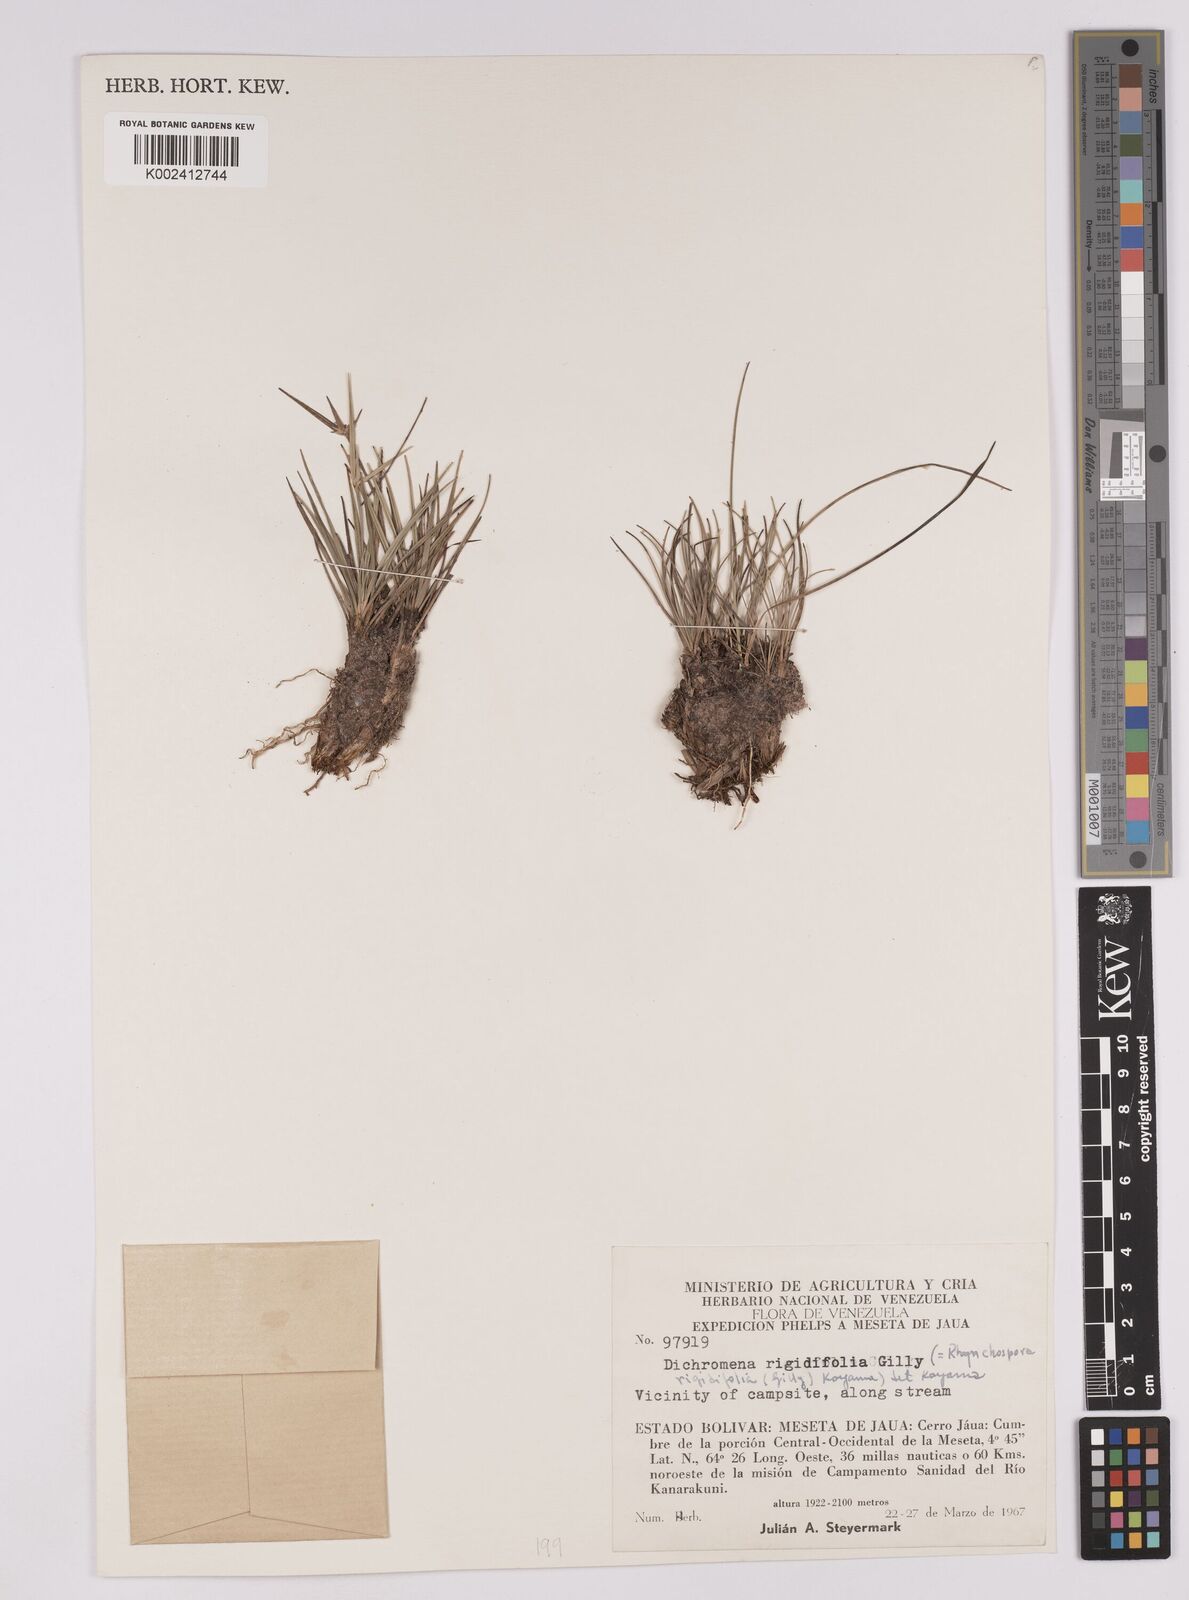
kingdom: Plantae
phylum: Tracheophyta
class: Liliopsida
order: Poales
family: Cyperaceae
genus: Rhynchospora
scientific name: Rhynchospora rigidifolia
